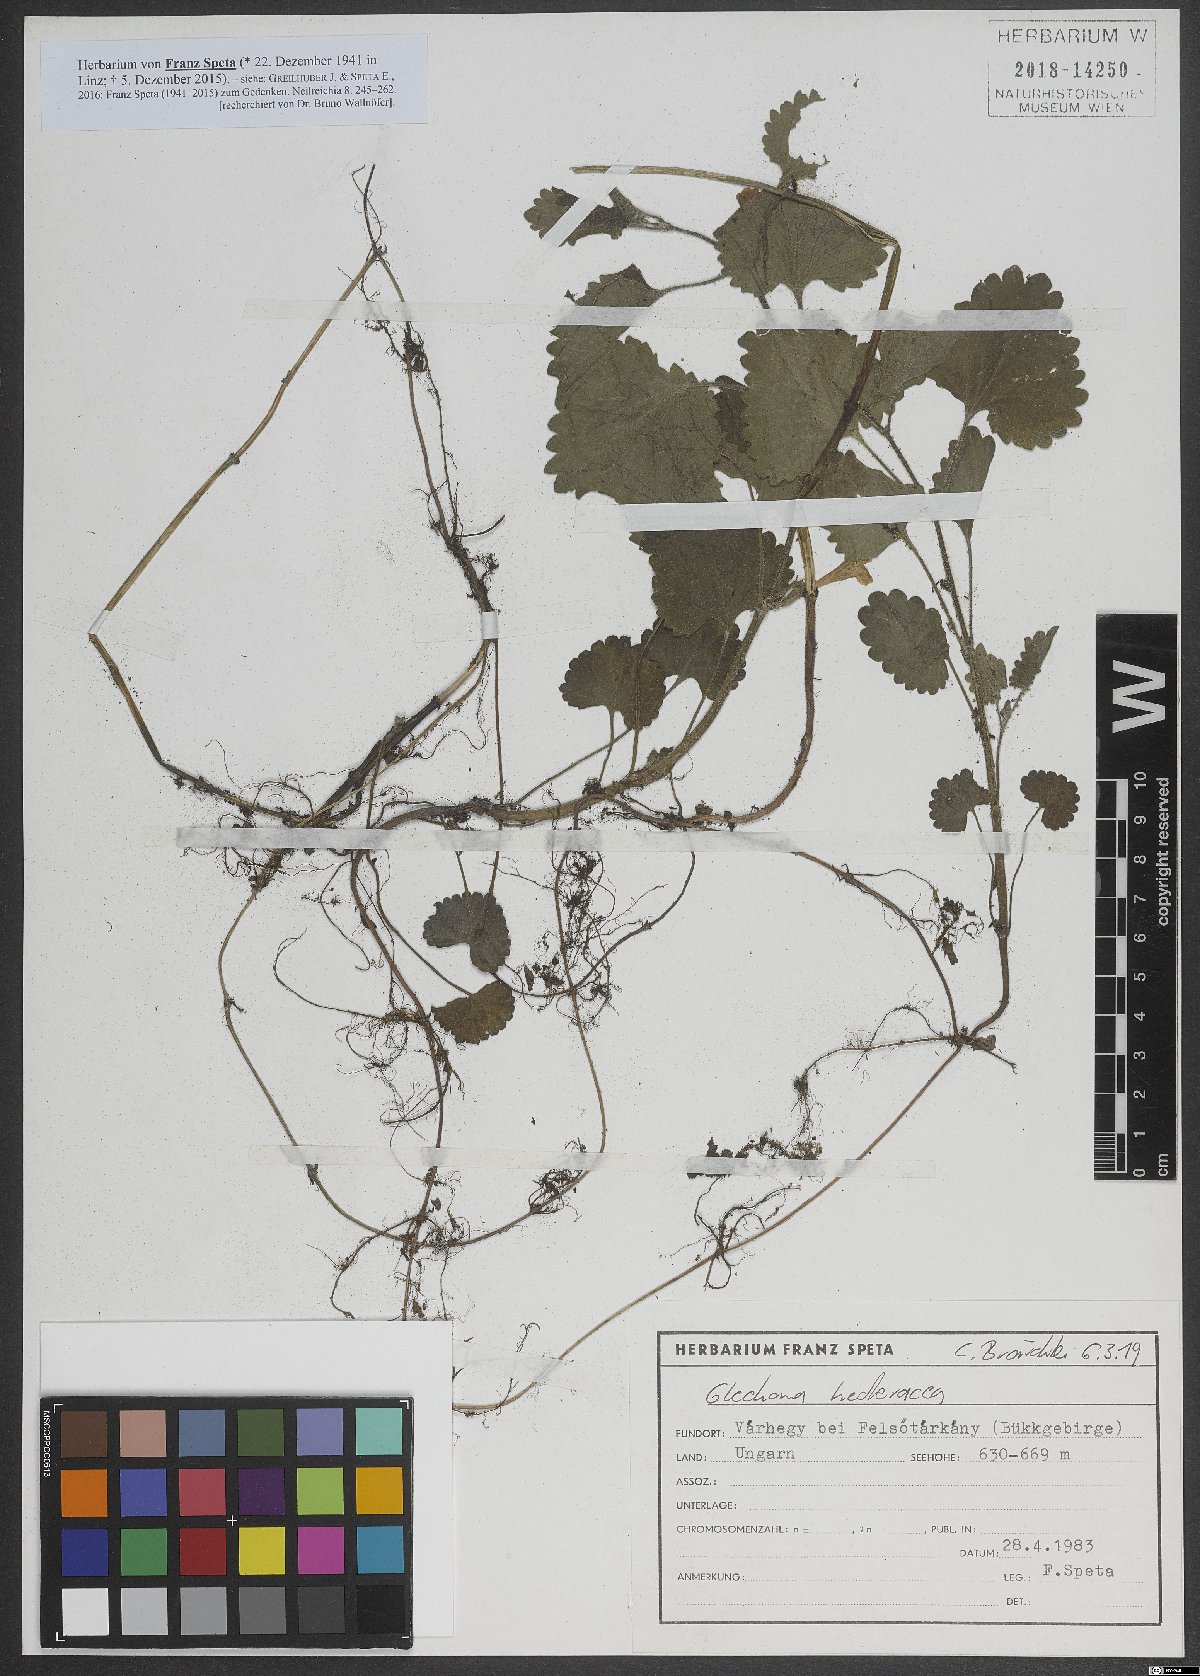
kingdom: Plantae
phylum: Tracheophyta
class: Magnoliopsida
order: Lamiales
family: Lamiaceae
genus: Glechoma
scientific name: Glechoma hederacea
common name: Ground ivy
